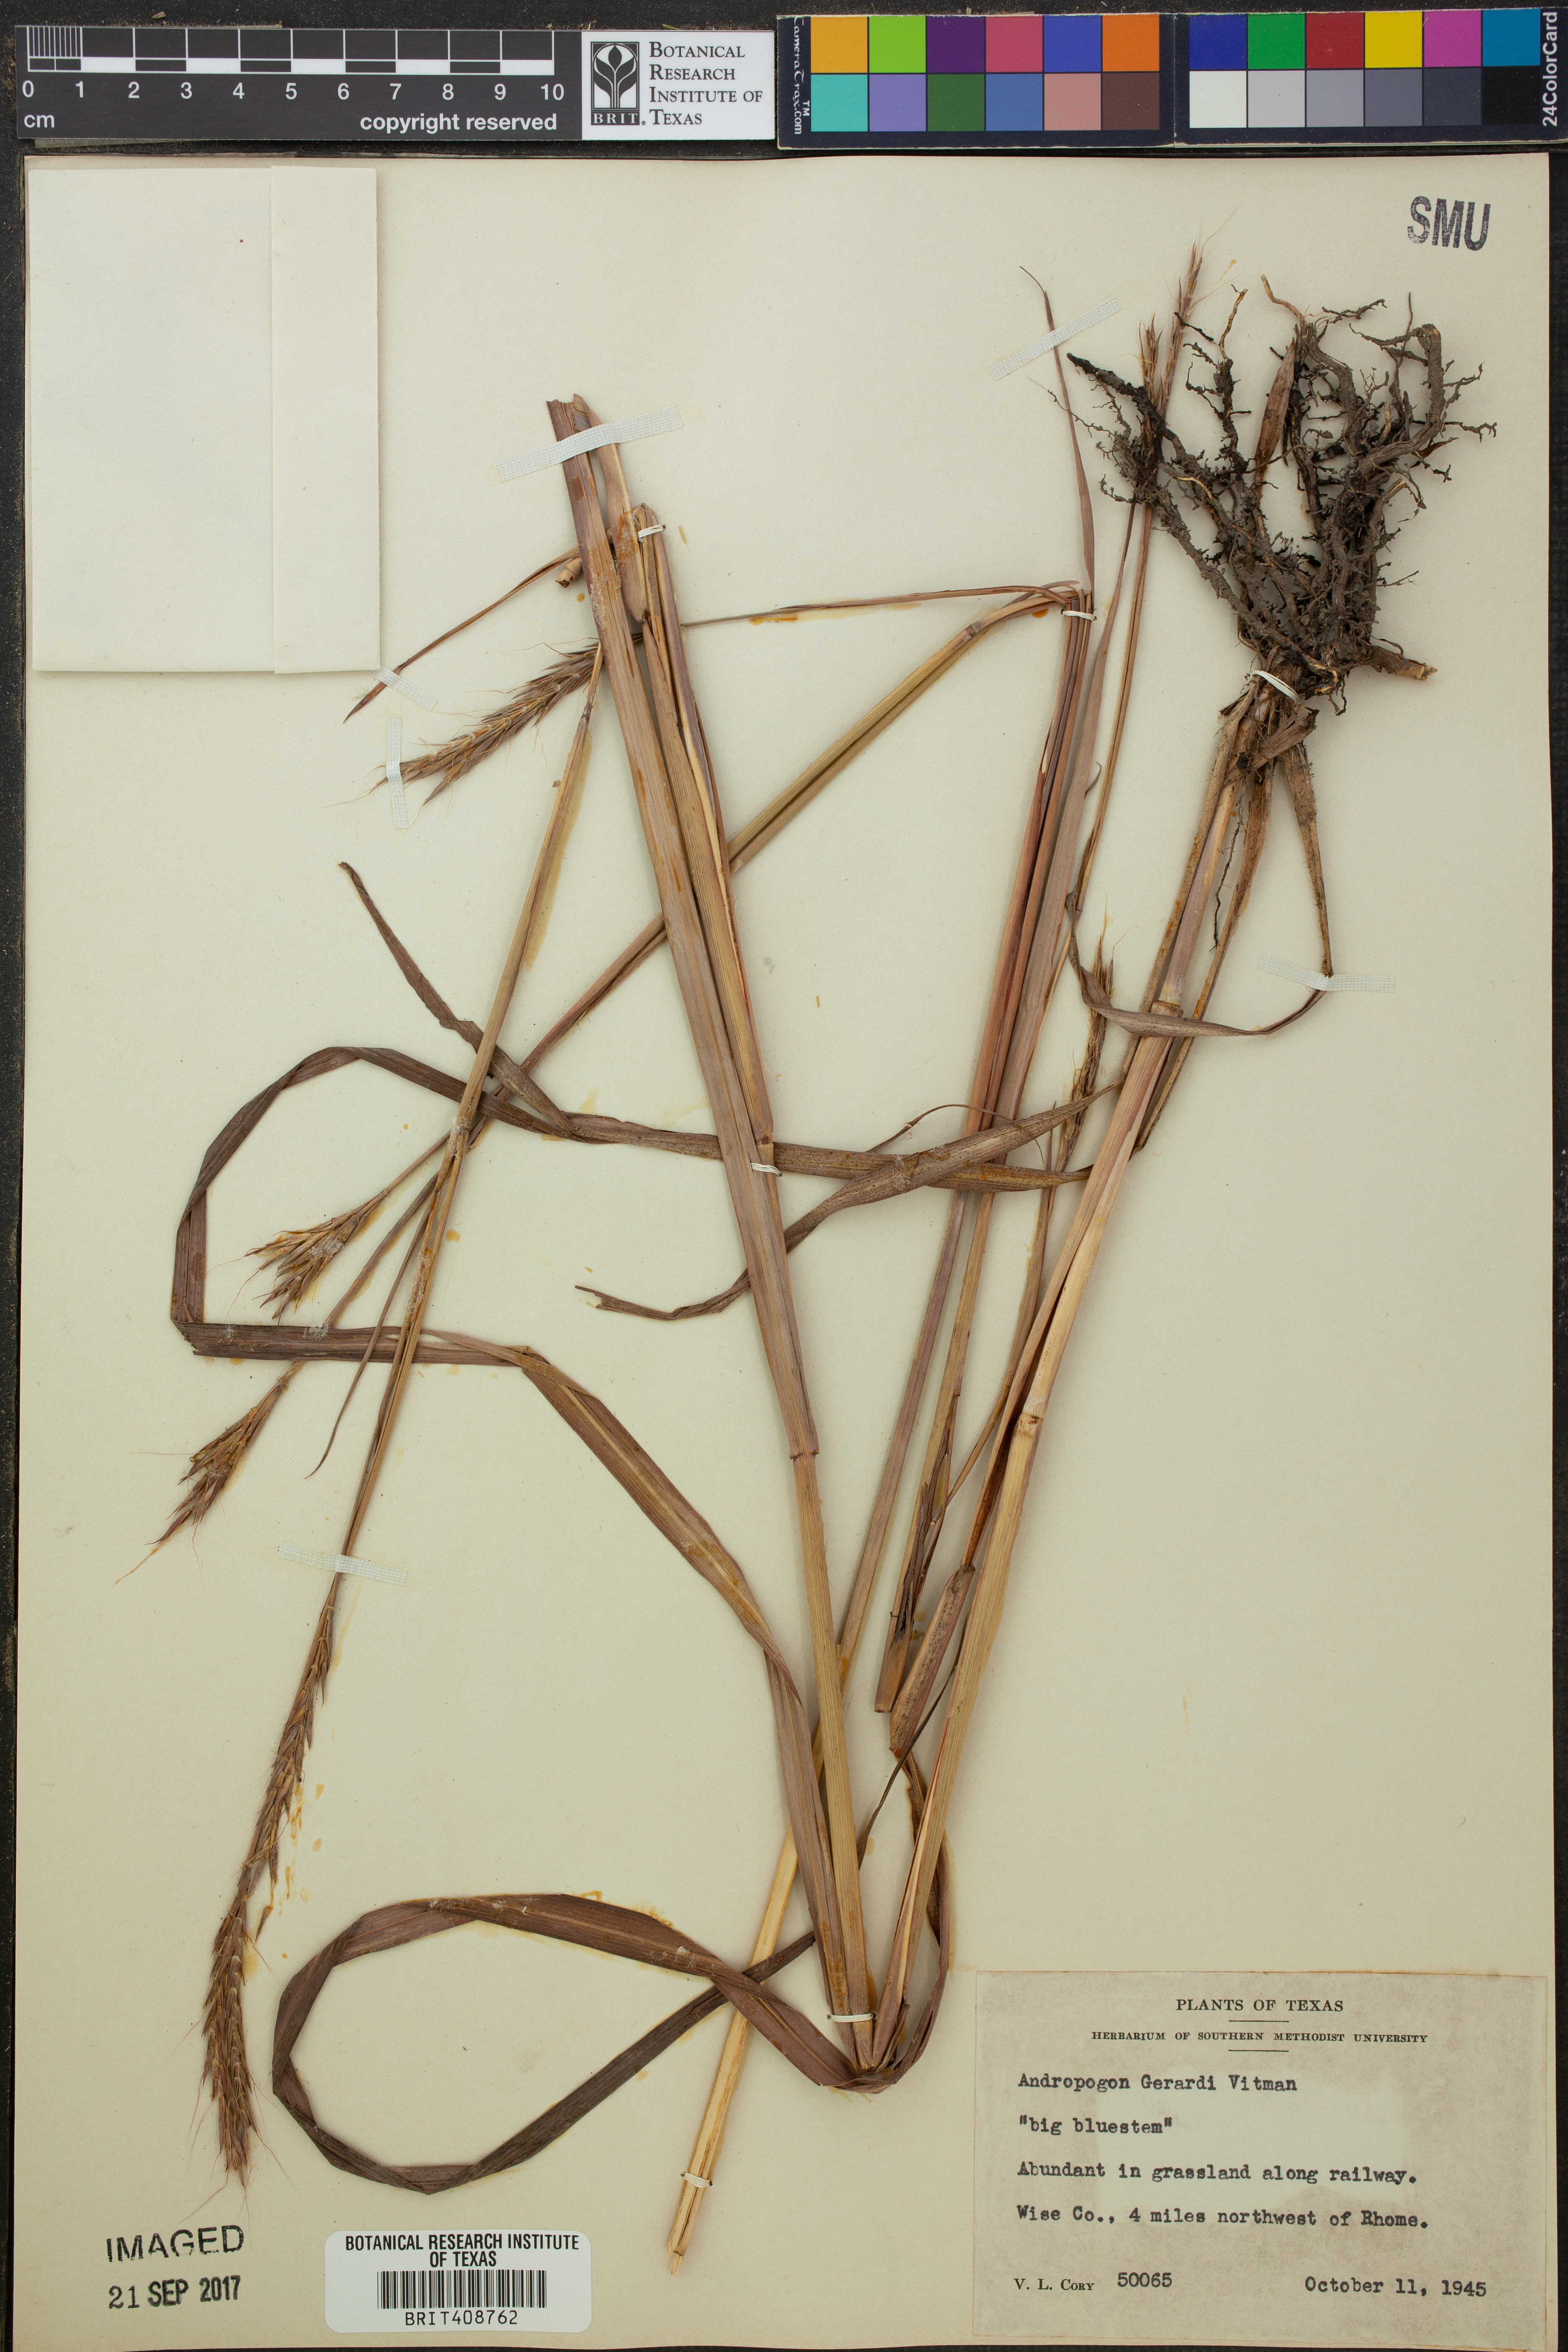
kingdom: Plantae
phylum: Tracheophyta
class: Liliopsida
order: Poales
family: Poaceae
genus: Andropogon
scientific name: Andropogon gerardi
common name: Big bluestem
